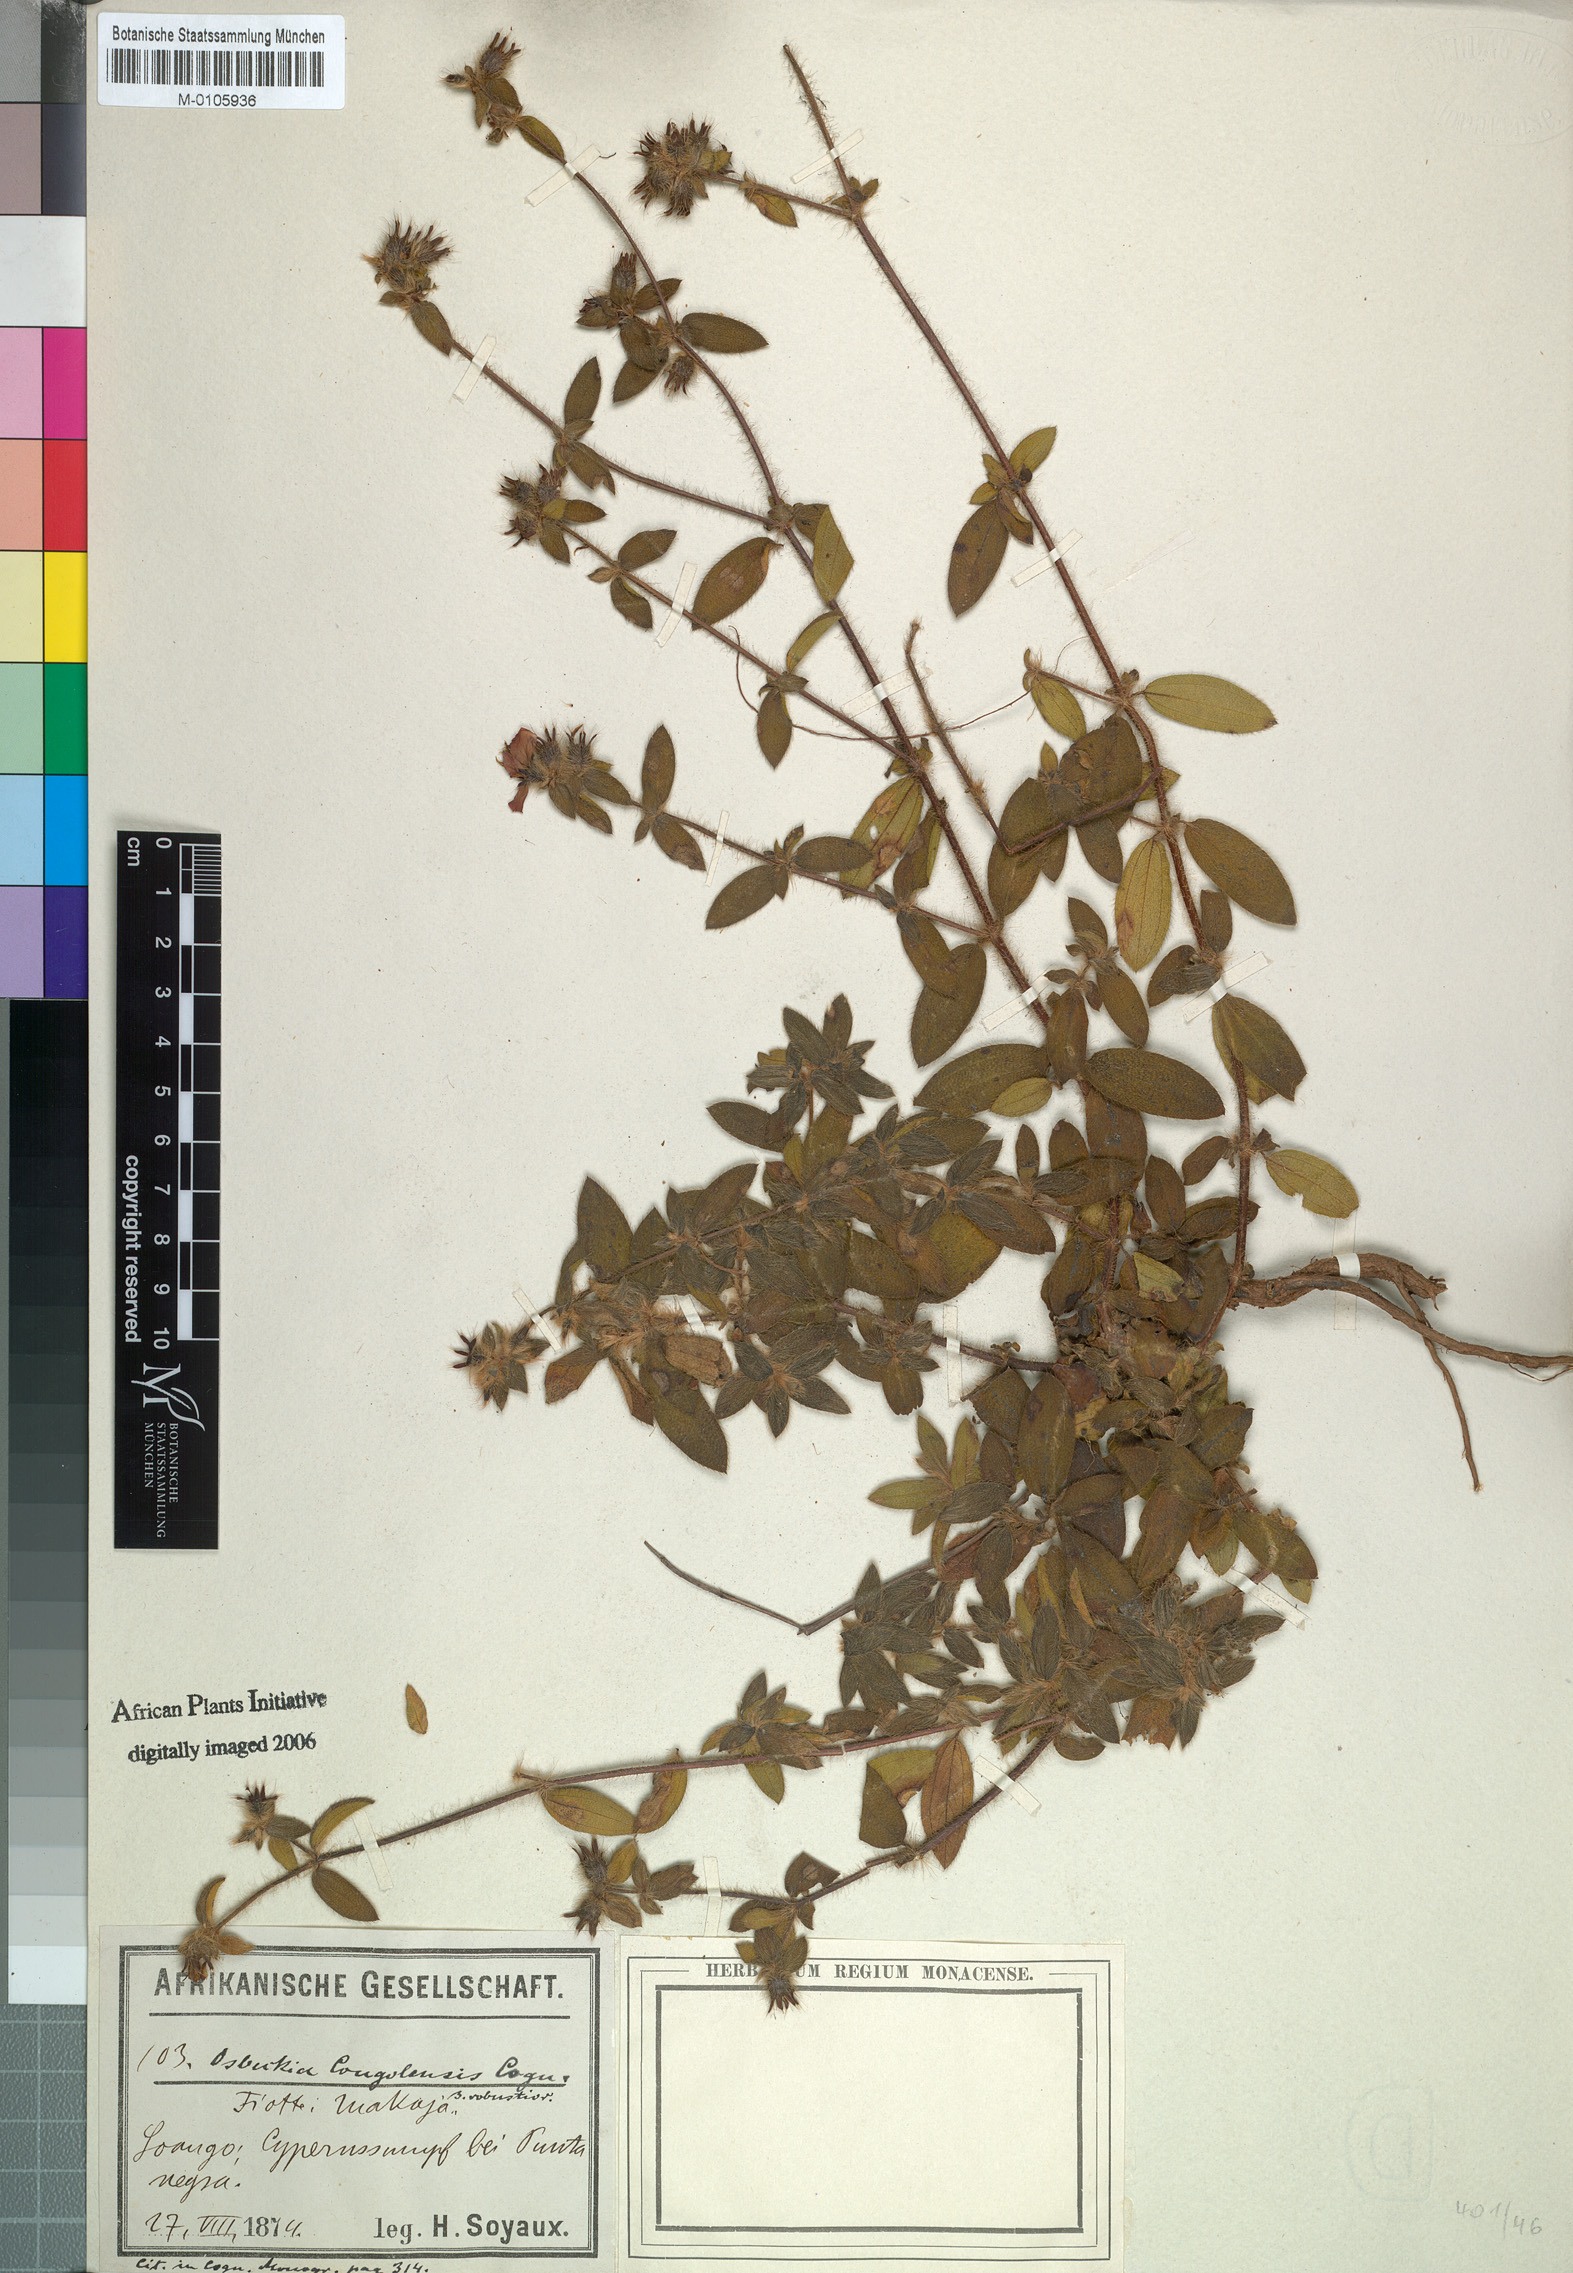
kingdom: Plantae
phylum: Tracheophyta
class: Magnoliopsida
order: Myrtales
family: Melastomataceae
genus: Nerophila
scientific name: Nerophila congolensis
